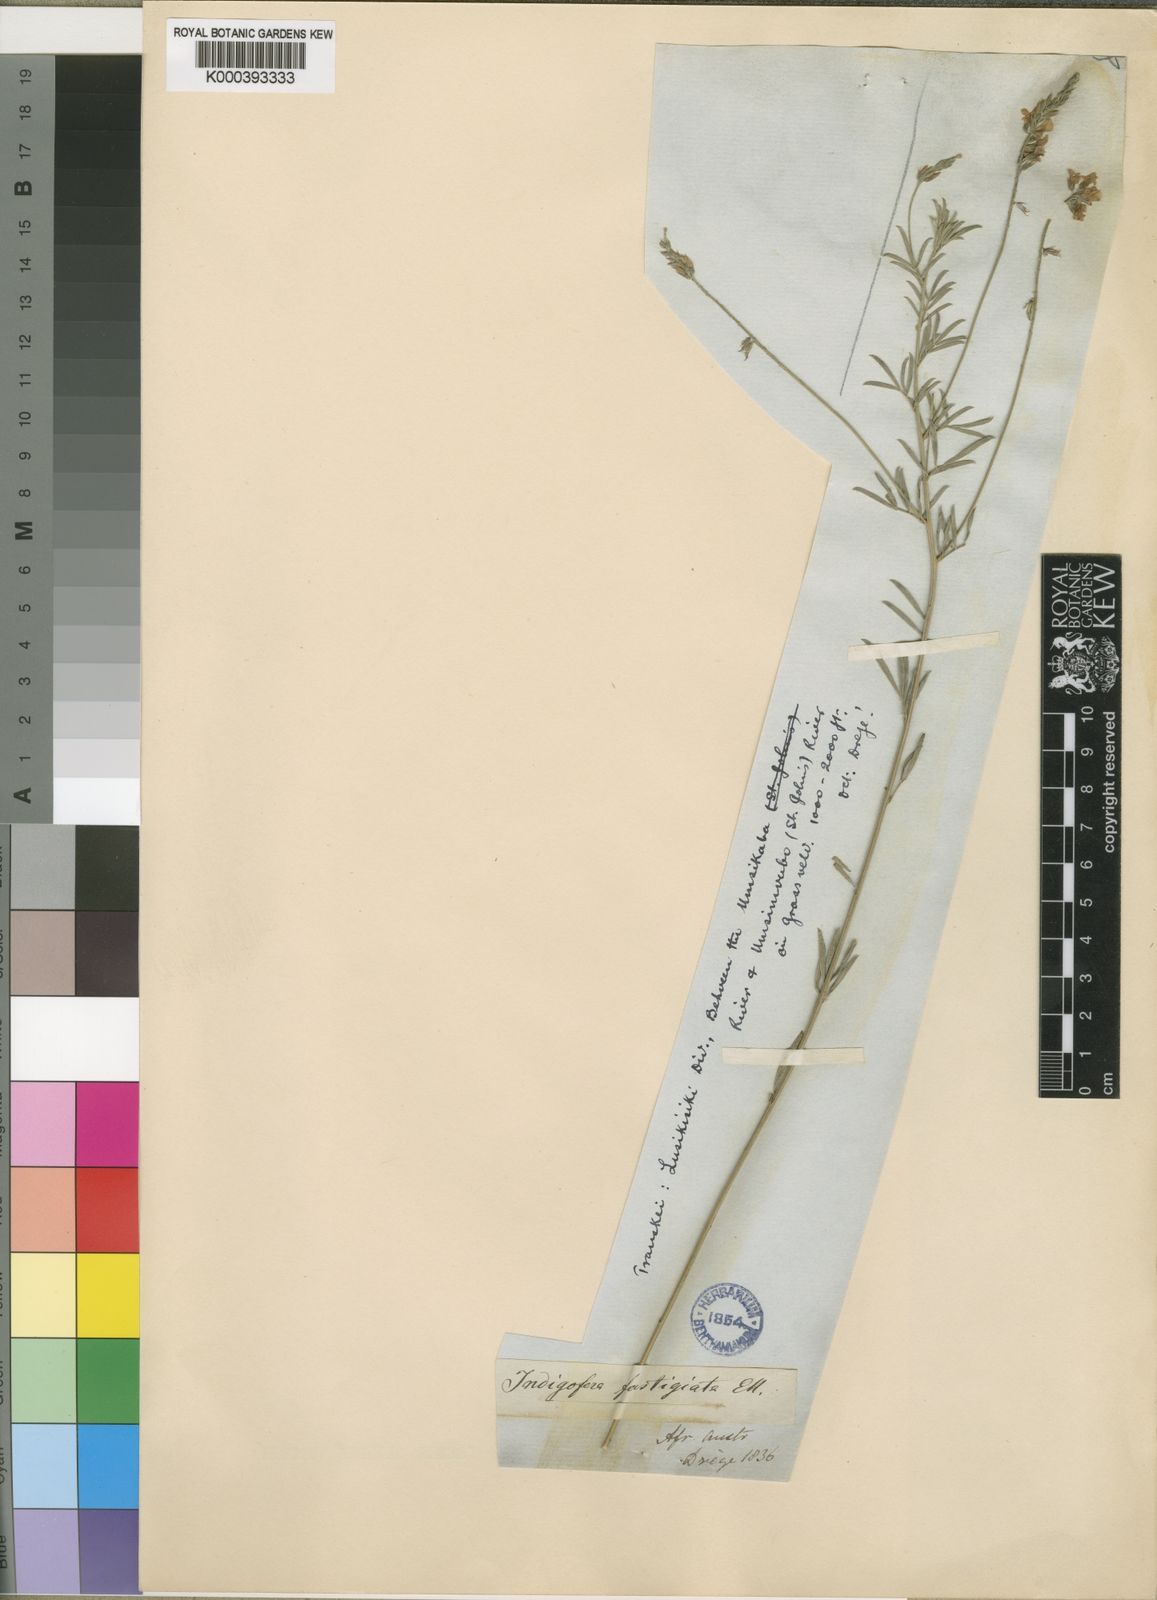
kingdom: Plantae
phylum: Tracheophyta
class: Magnoliopsida
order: Fabales
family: Fabaceae
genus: Indigastrum
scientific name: Indigastrum fastigiatum
